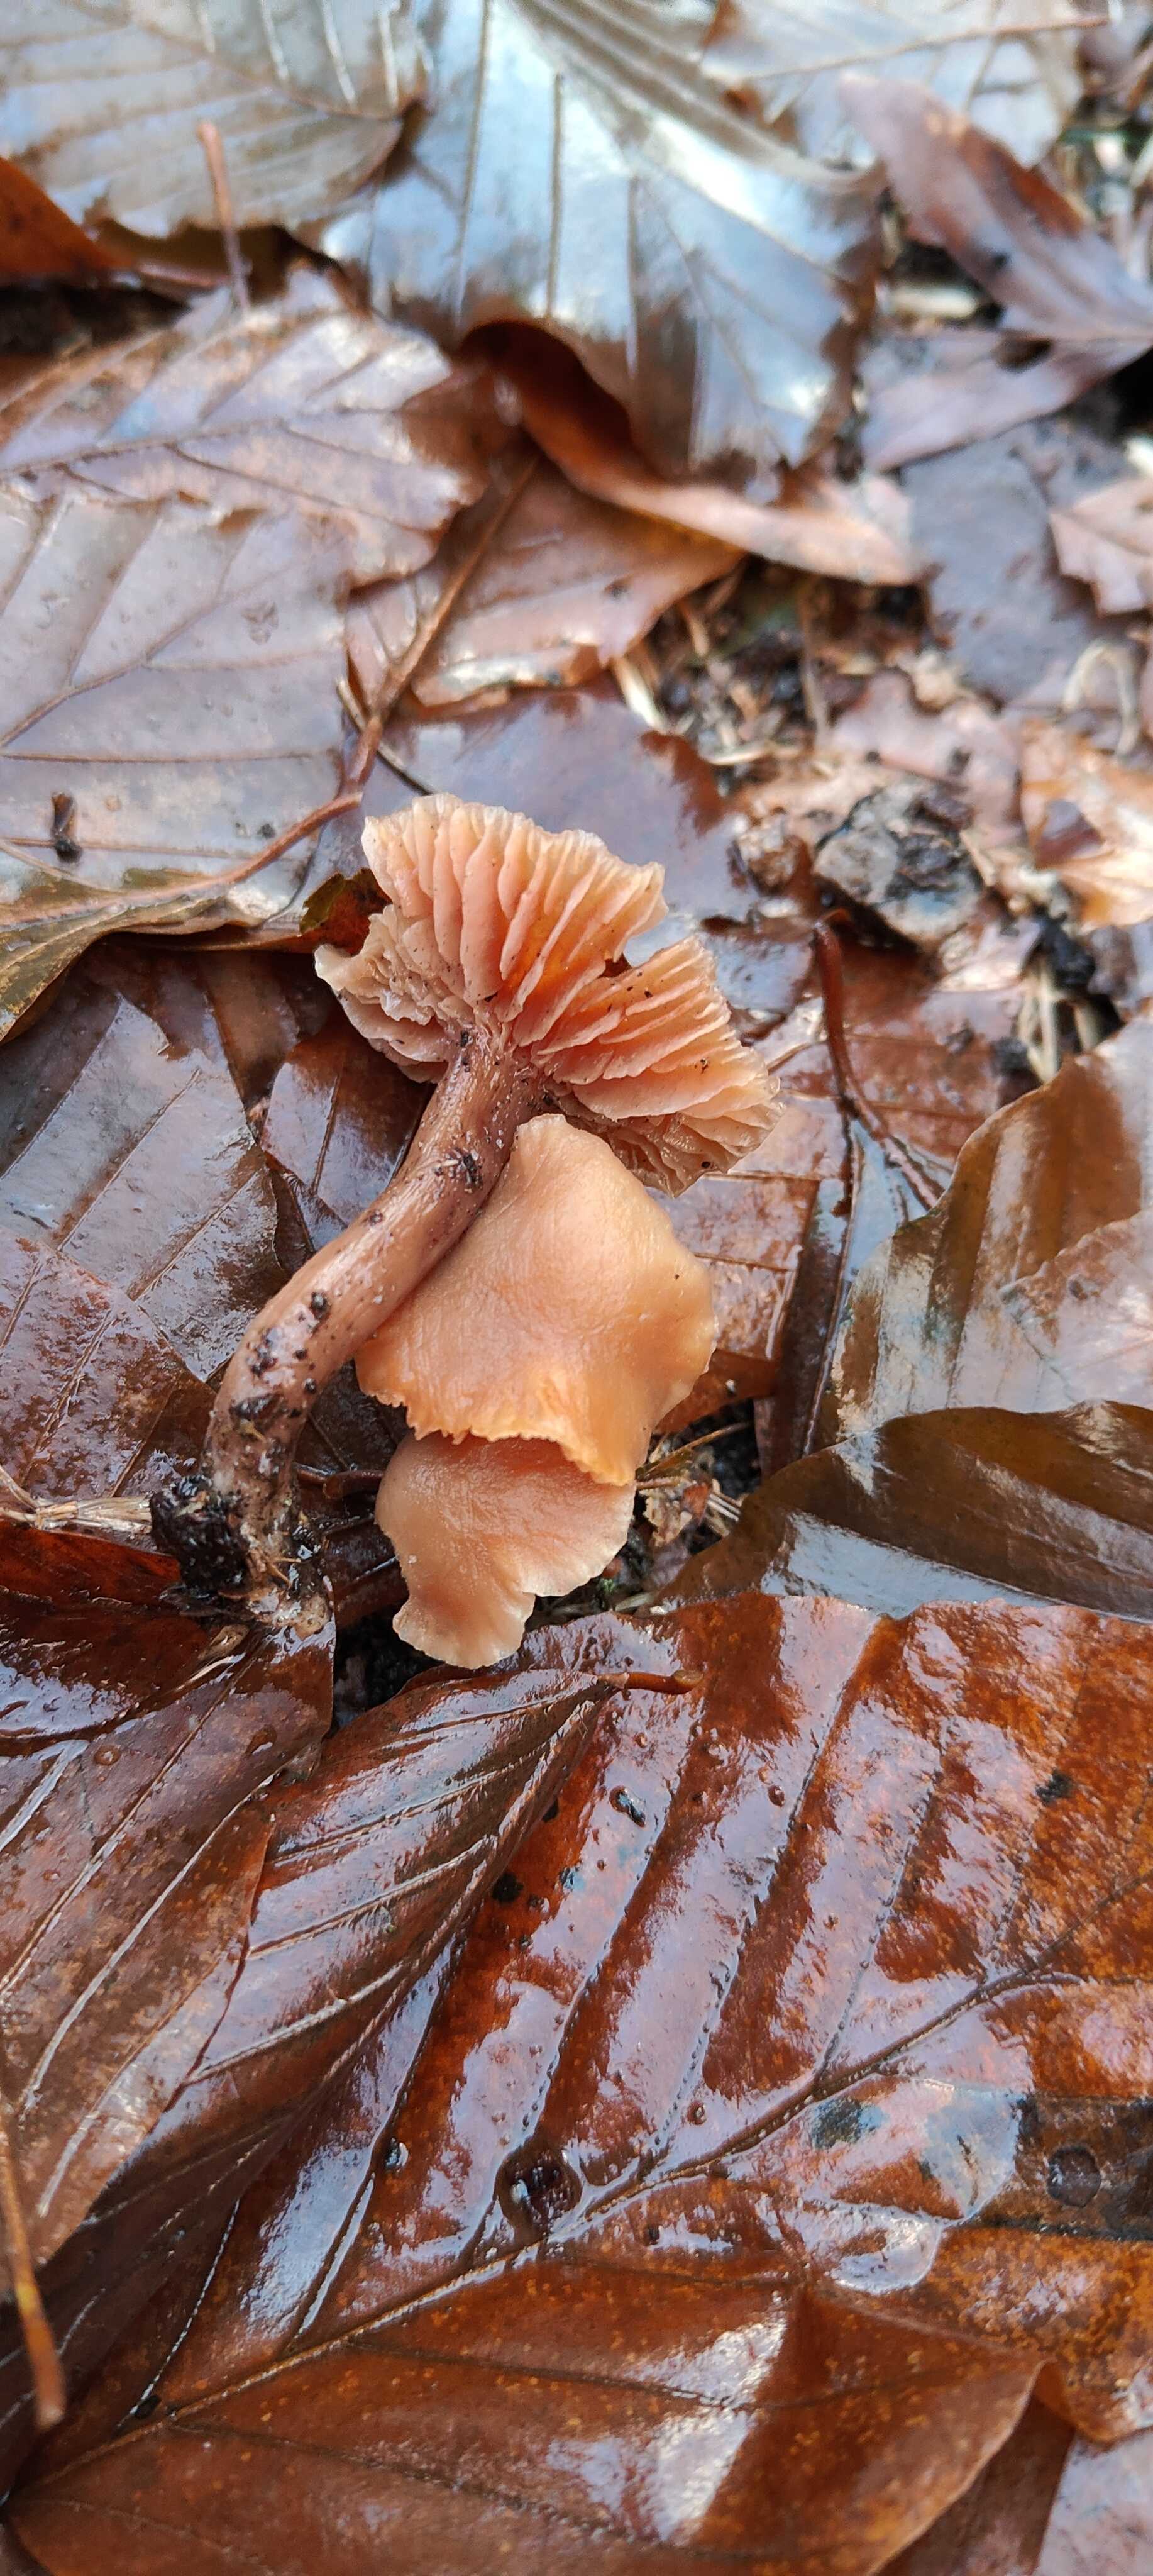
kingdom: Fungi
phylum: Basidiomycota
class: Agaricomycetes
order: Agaricales
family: Hydnangiaceae
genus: Laccaria
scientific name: Laccaria laccata
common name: rød ametysthat
